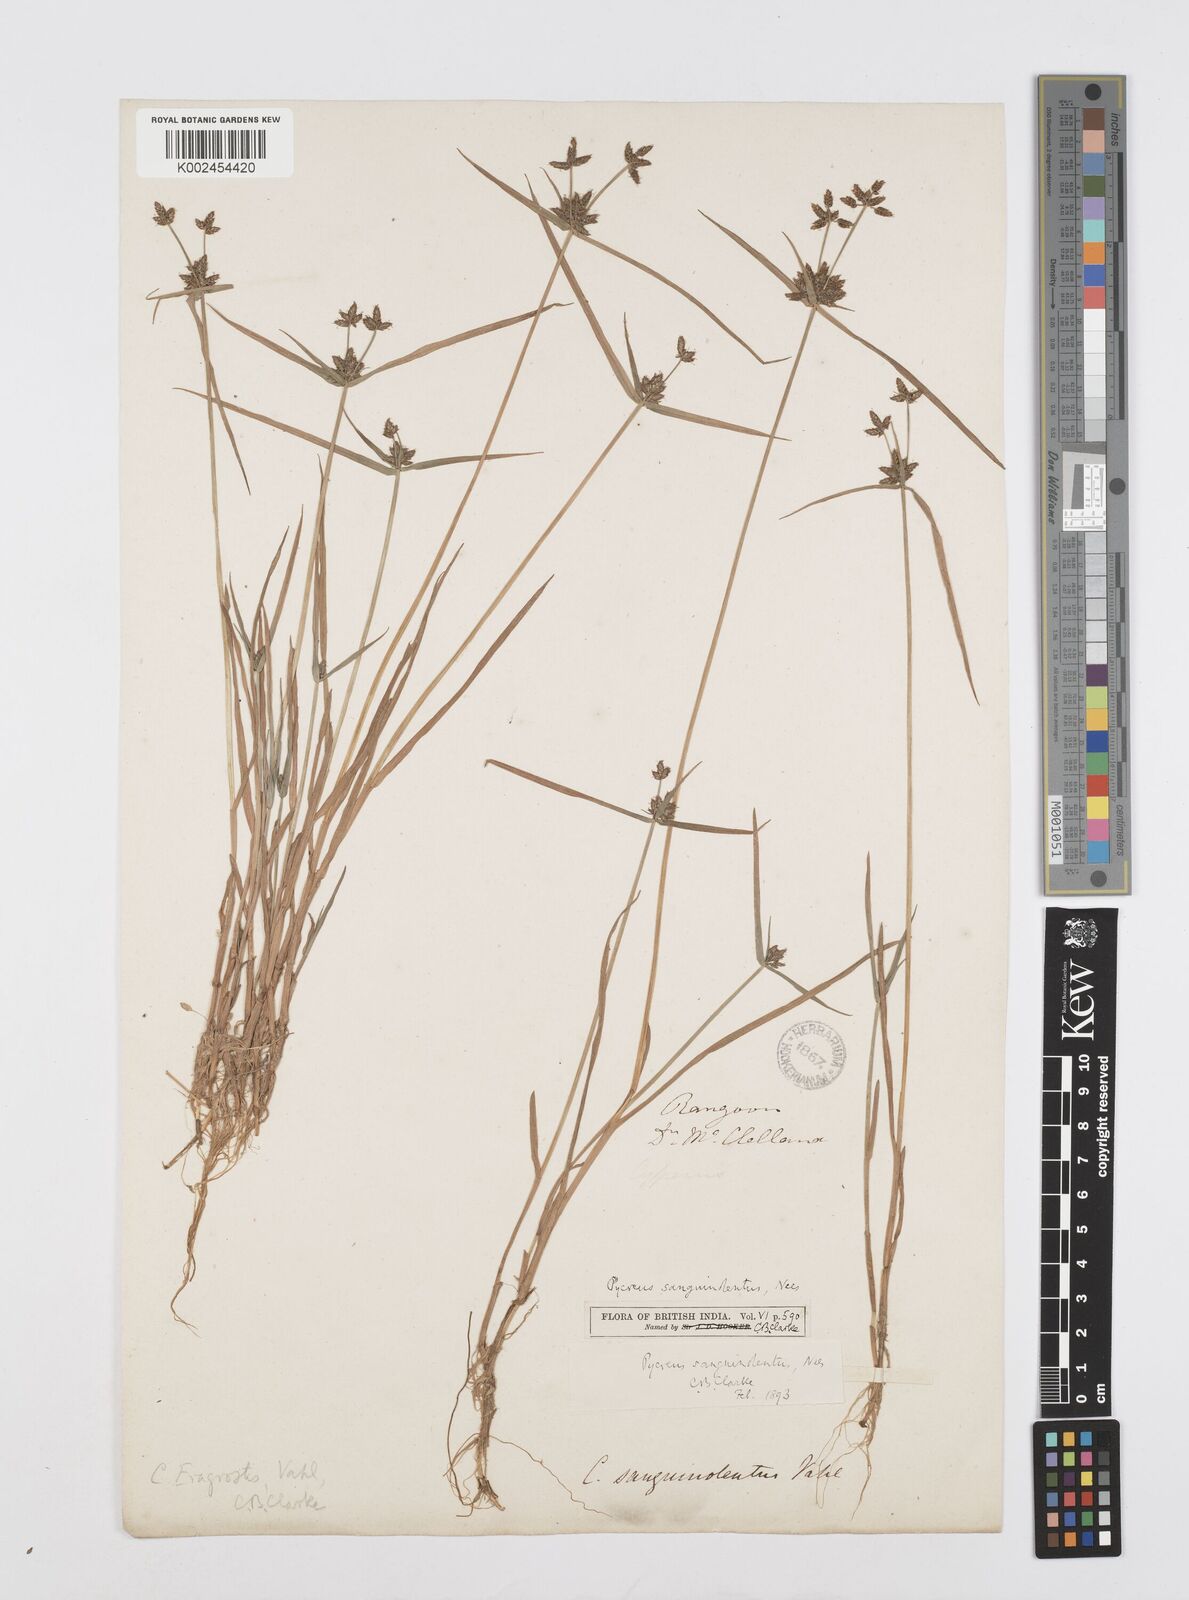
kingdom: Plantae
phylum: Tracheophyta
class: Liliopsida
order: Poales
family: Cyperaceae
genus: Cyperus
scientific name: Cyperus sanguinolentus
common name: Purpleglume flatsedge
